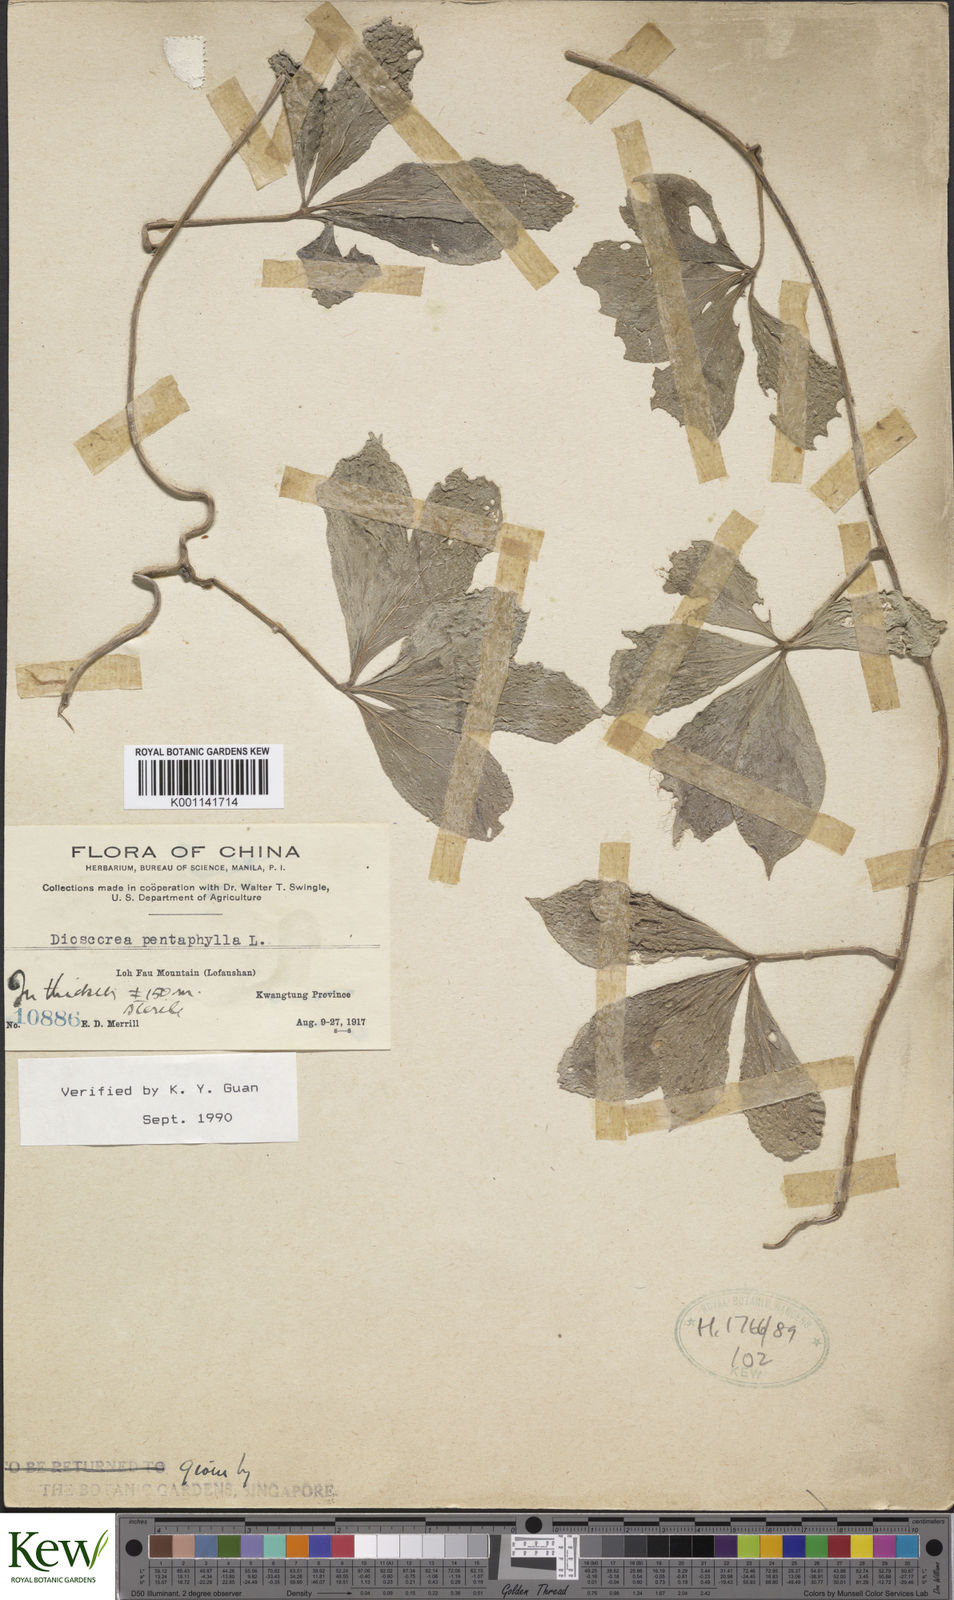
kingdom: Plantae
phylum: Tracheophyta
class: Liliopsida
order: Dioscoreales
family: Dioscoreaceae
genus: Dioscorea
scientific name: Dioscorea pentaphylla
